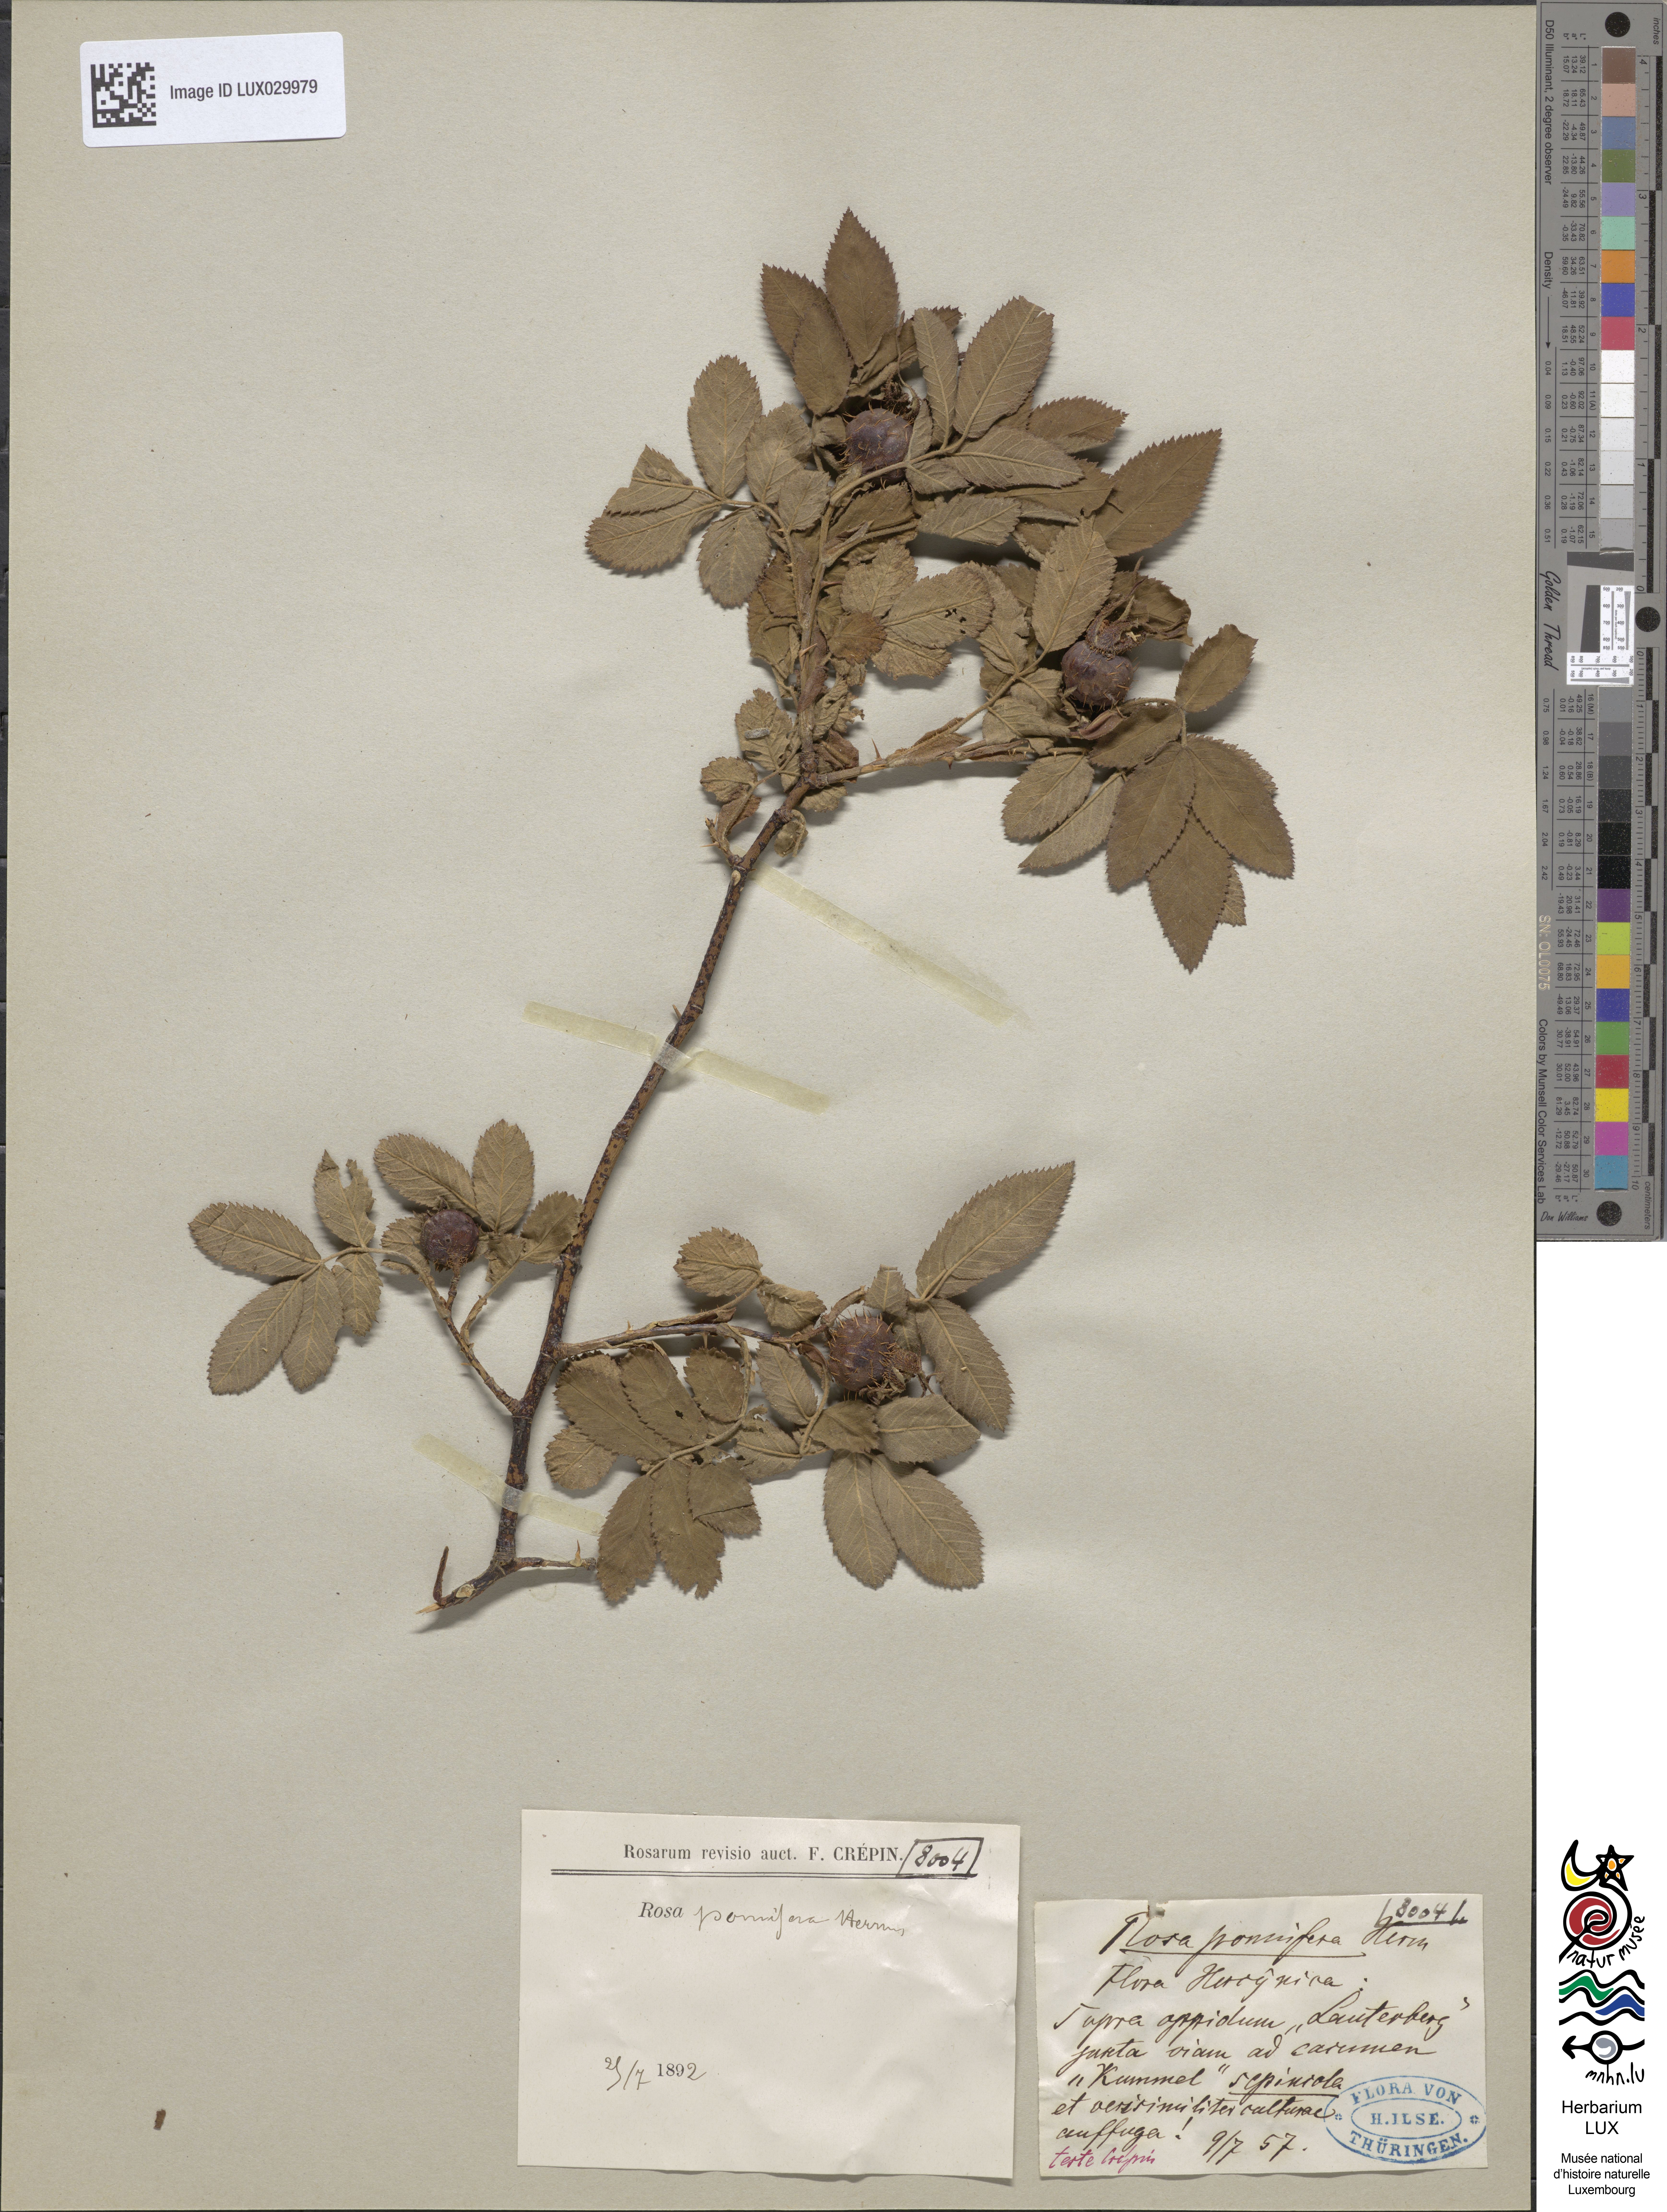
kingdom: Plantae
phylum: Tracheophyta
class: Magnoliopsida
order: Rosales
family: Rosaceae
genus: Rosa
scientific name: Rosa villosa
